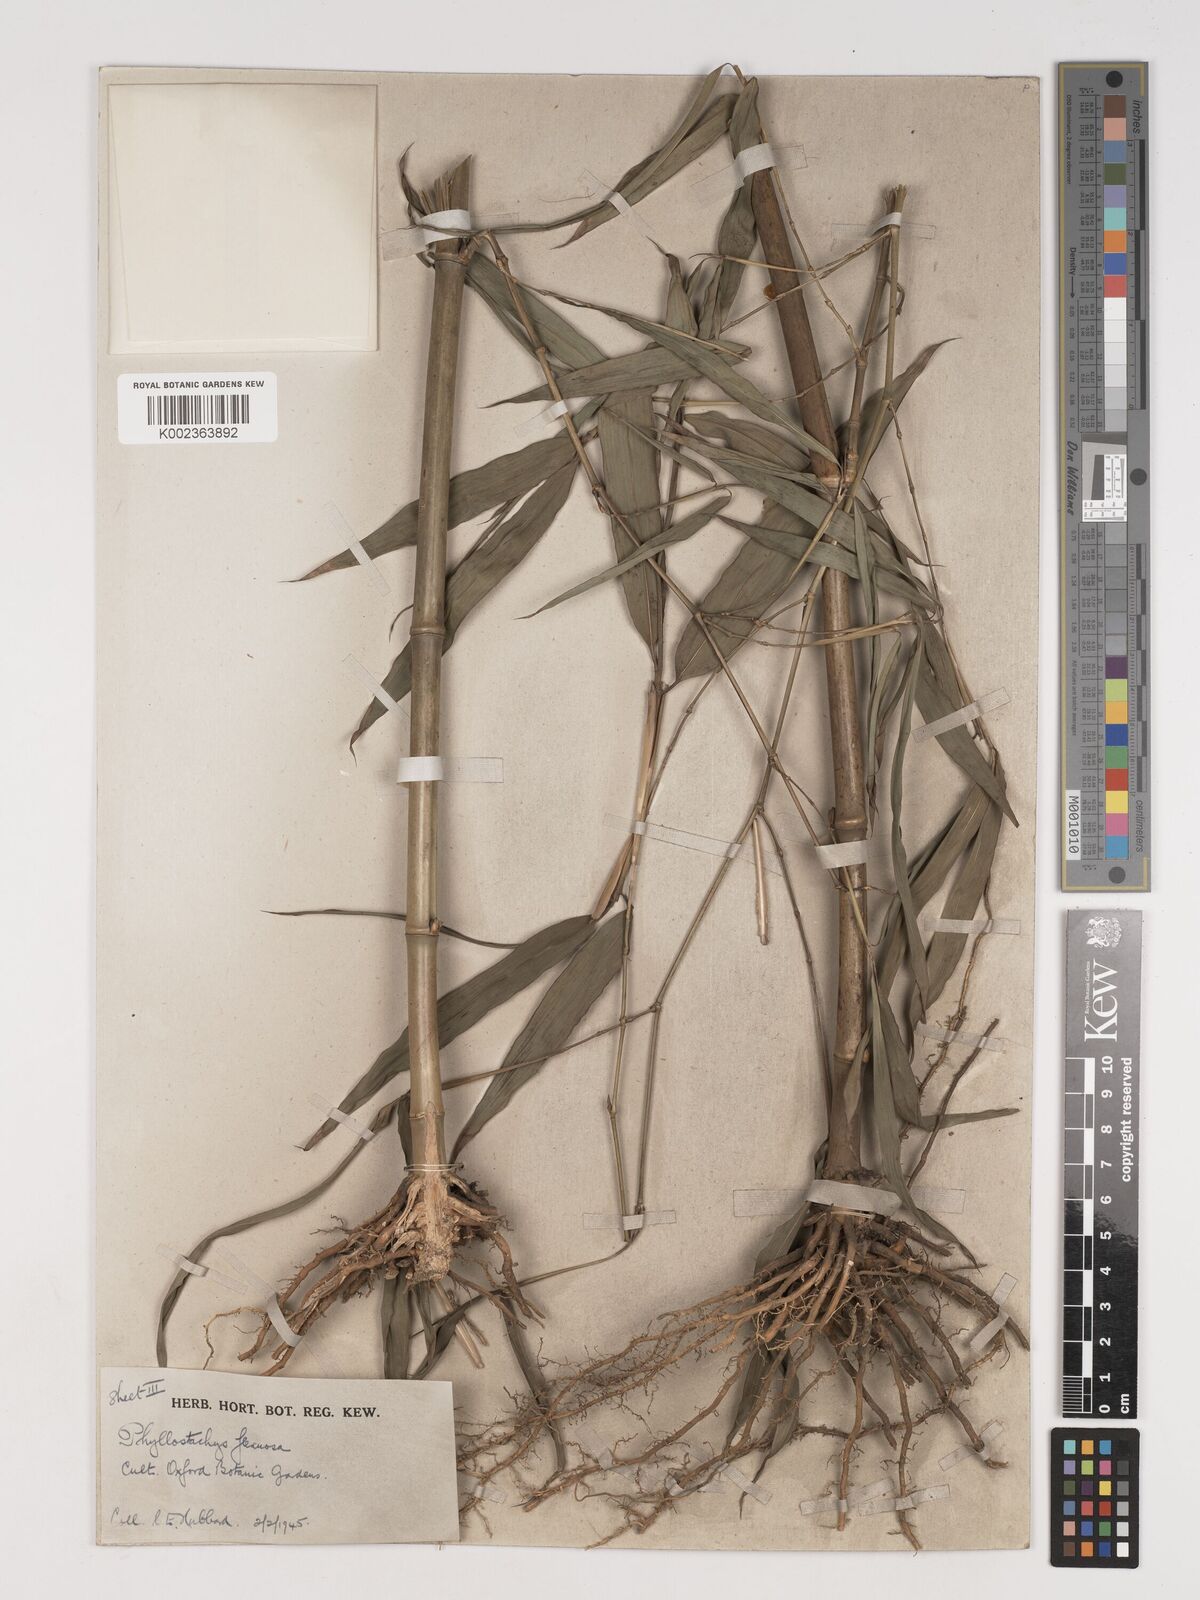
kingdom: Plantae
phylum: Tracheophyta
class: Liliopsida
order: Poales
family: Poaceae
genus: Phyllostachys
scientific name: Phyllostachys flexuosa
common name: Drooping timber bamboo
